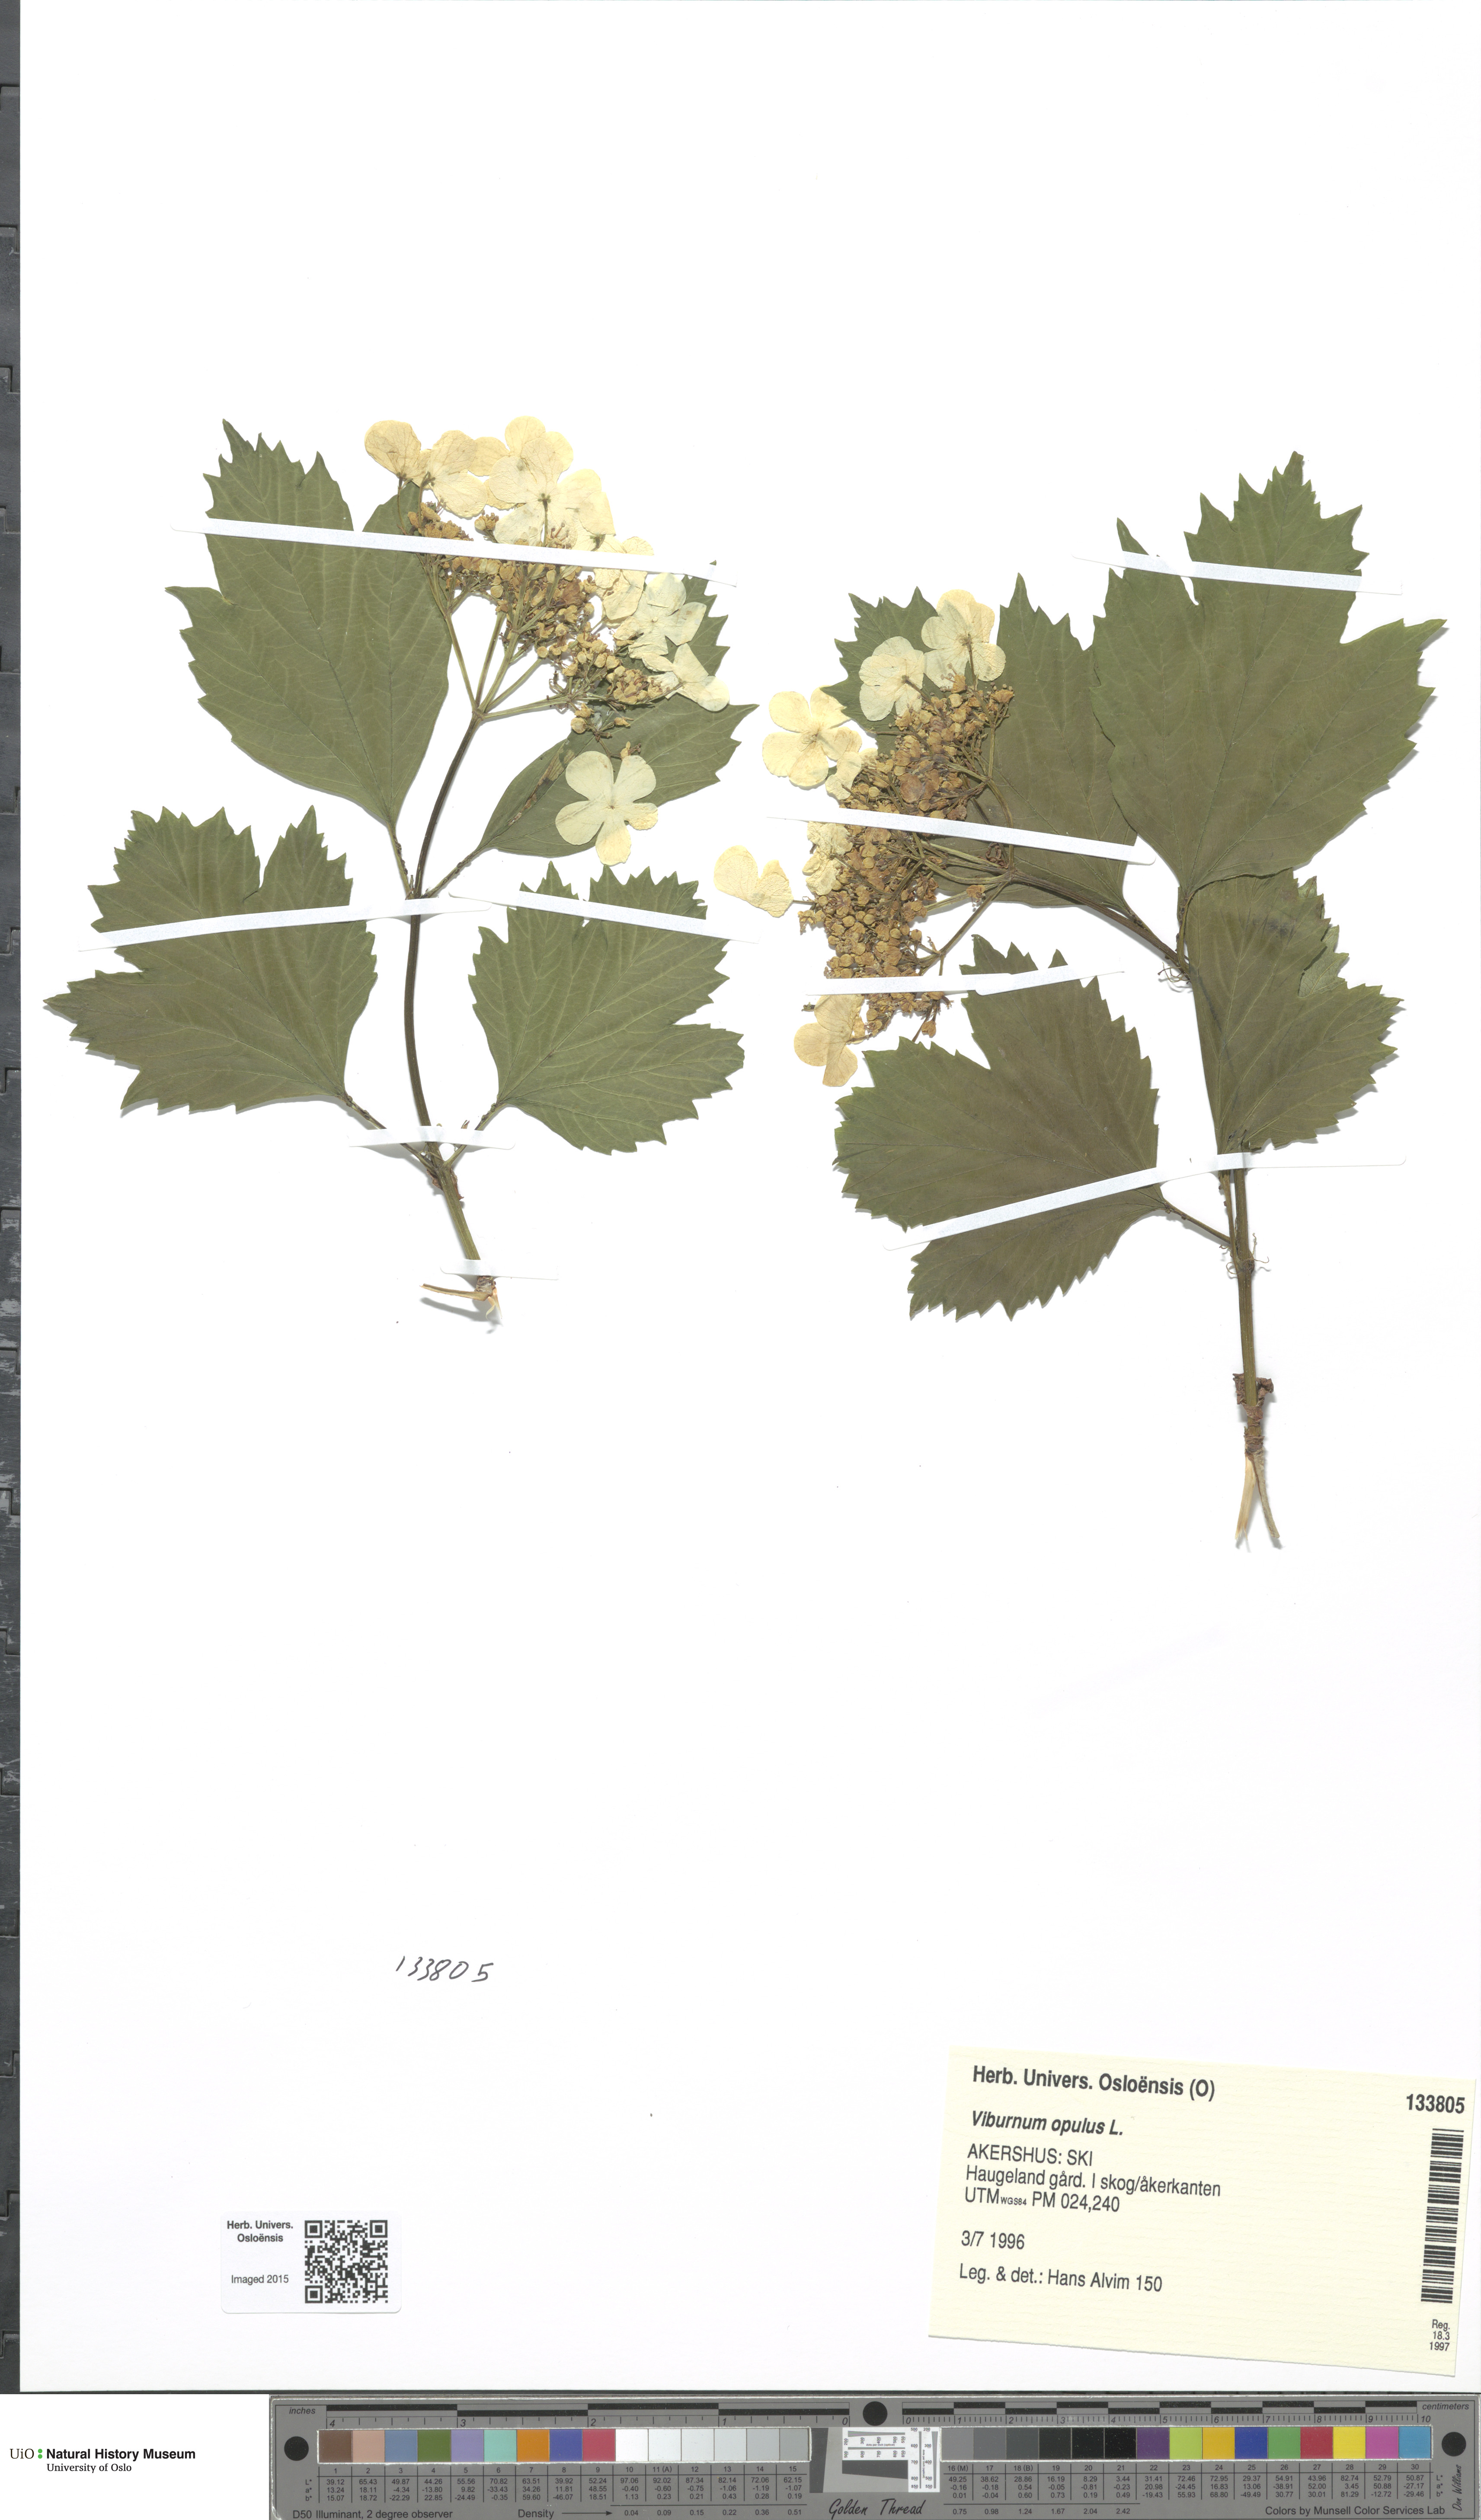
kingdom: Plantae
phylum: Tracheophyta
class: Magnoliopsida
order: Dipsacales
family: Viburnaceae
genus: Viburnum
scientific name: Viburnum opulus
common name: Guelder-rose
